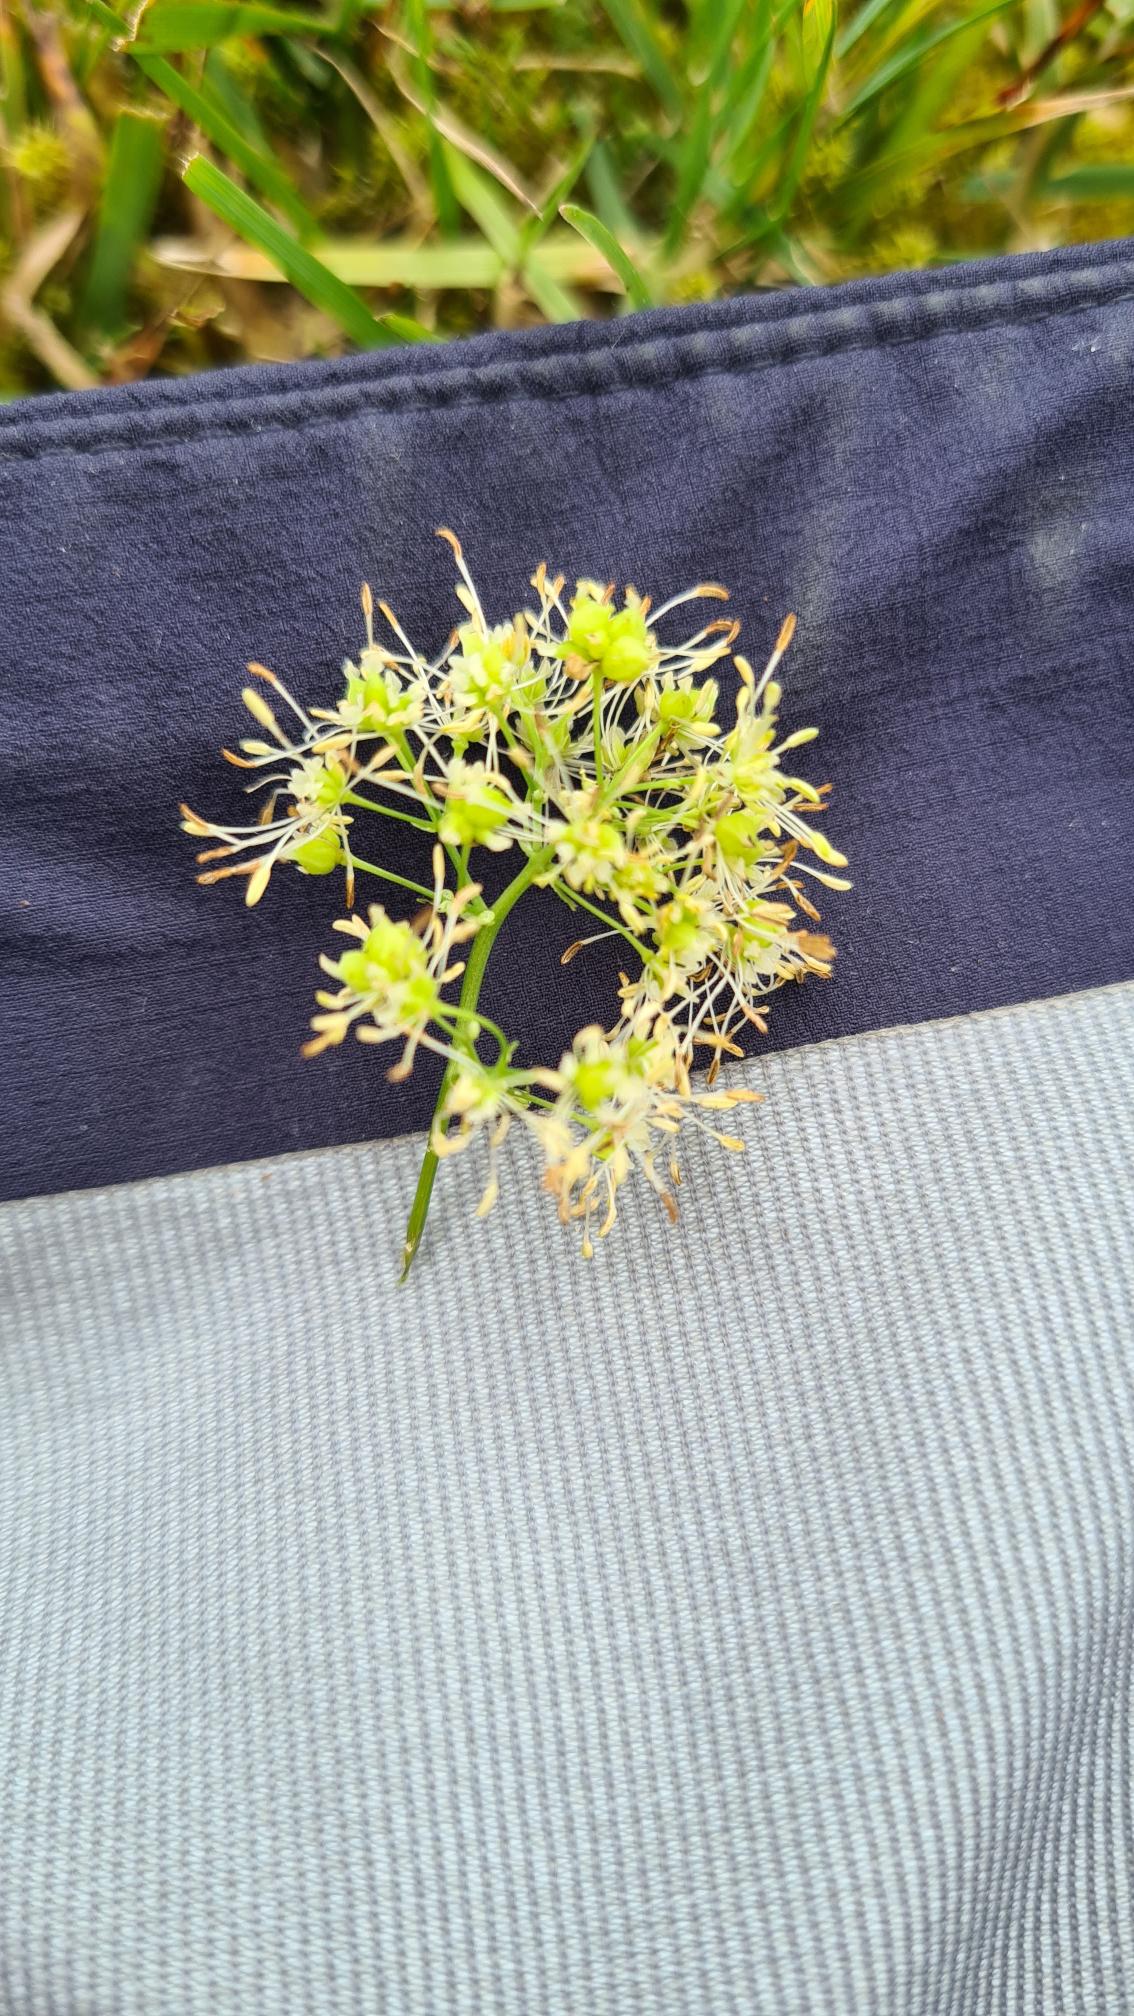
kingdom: Plantae
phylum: Tracheophyta
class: Magnoliopsida
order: Ranunculales
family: Ranunculaceae
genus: Thalictrum
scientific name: Thalictrum flavum
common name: Gul frøstjerne
